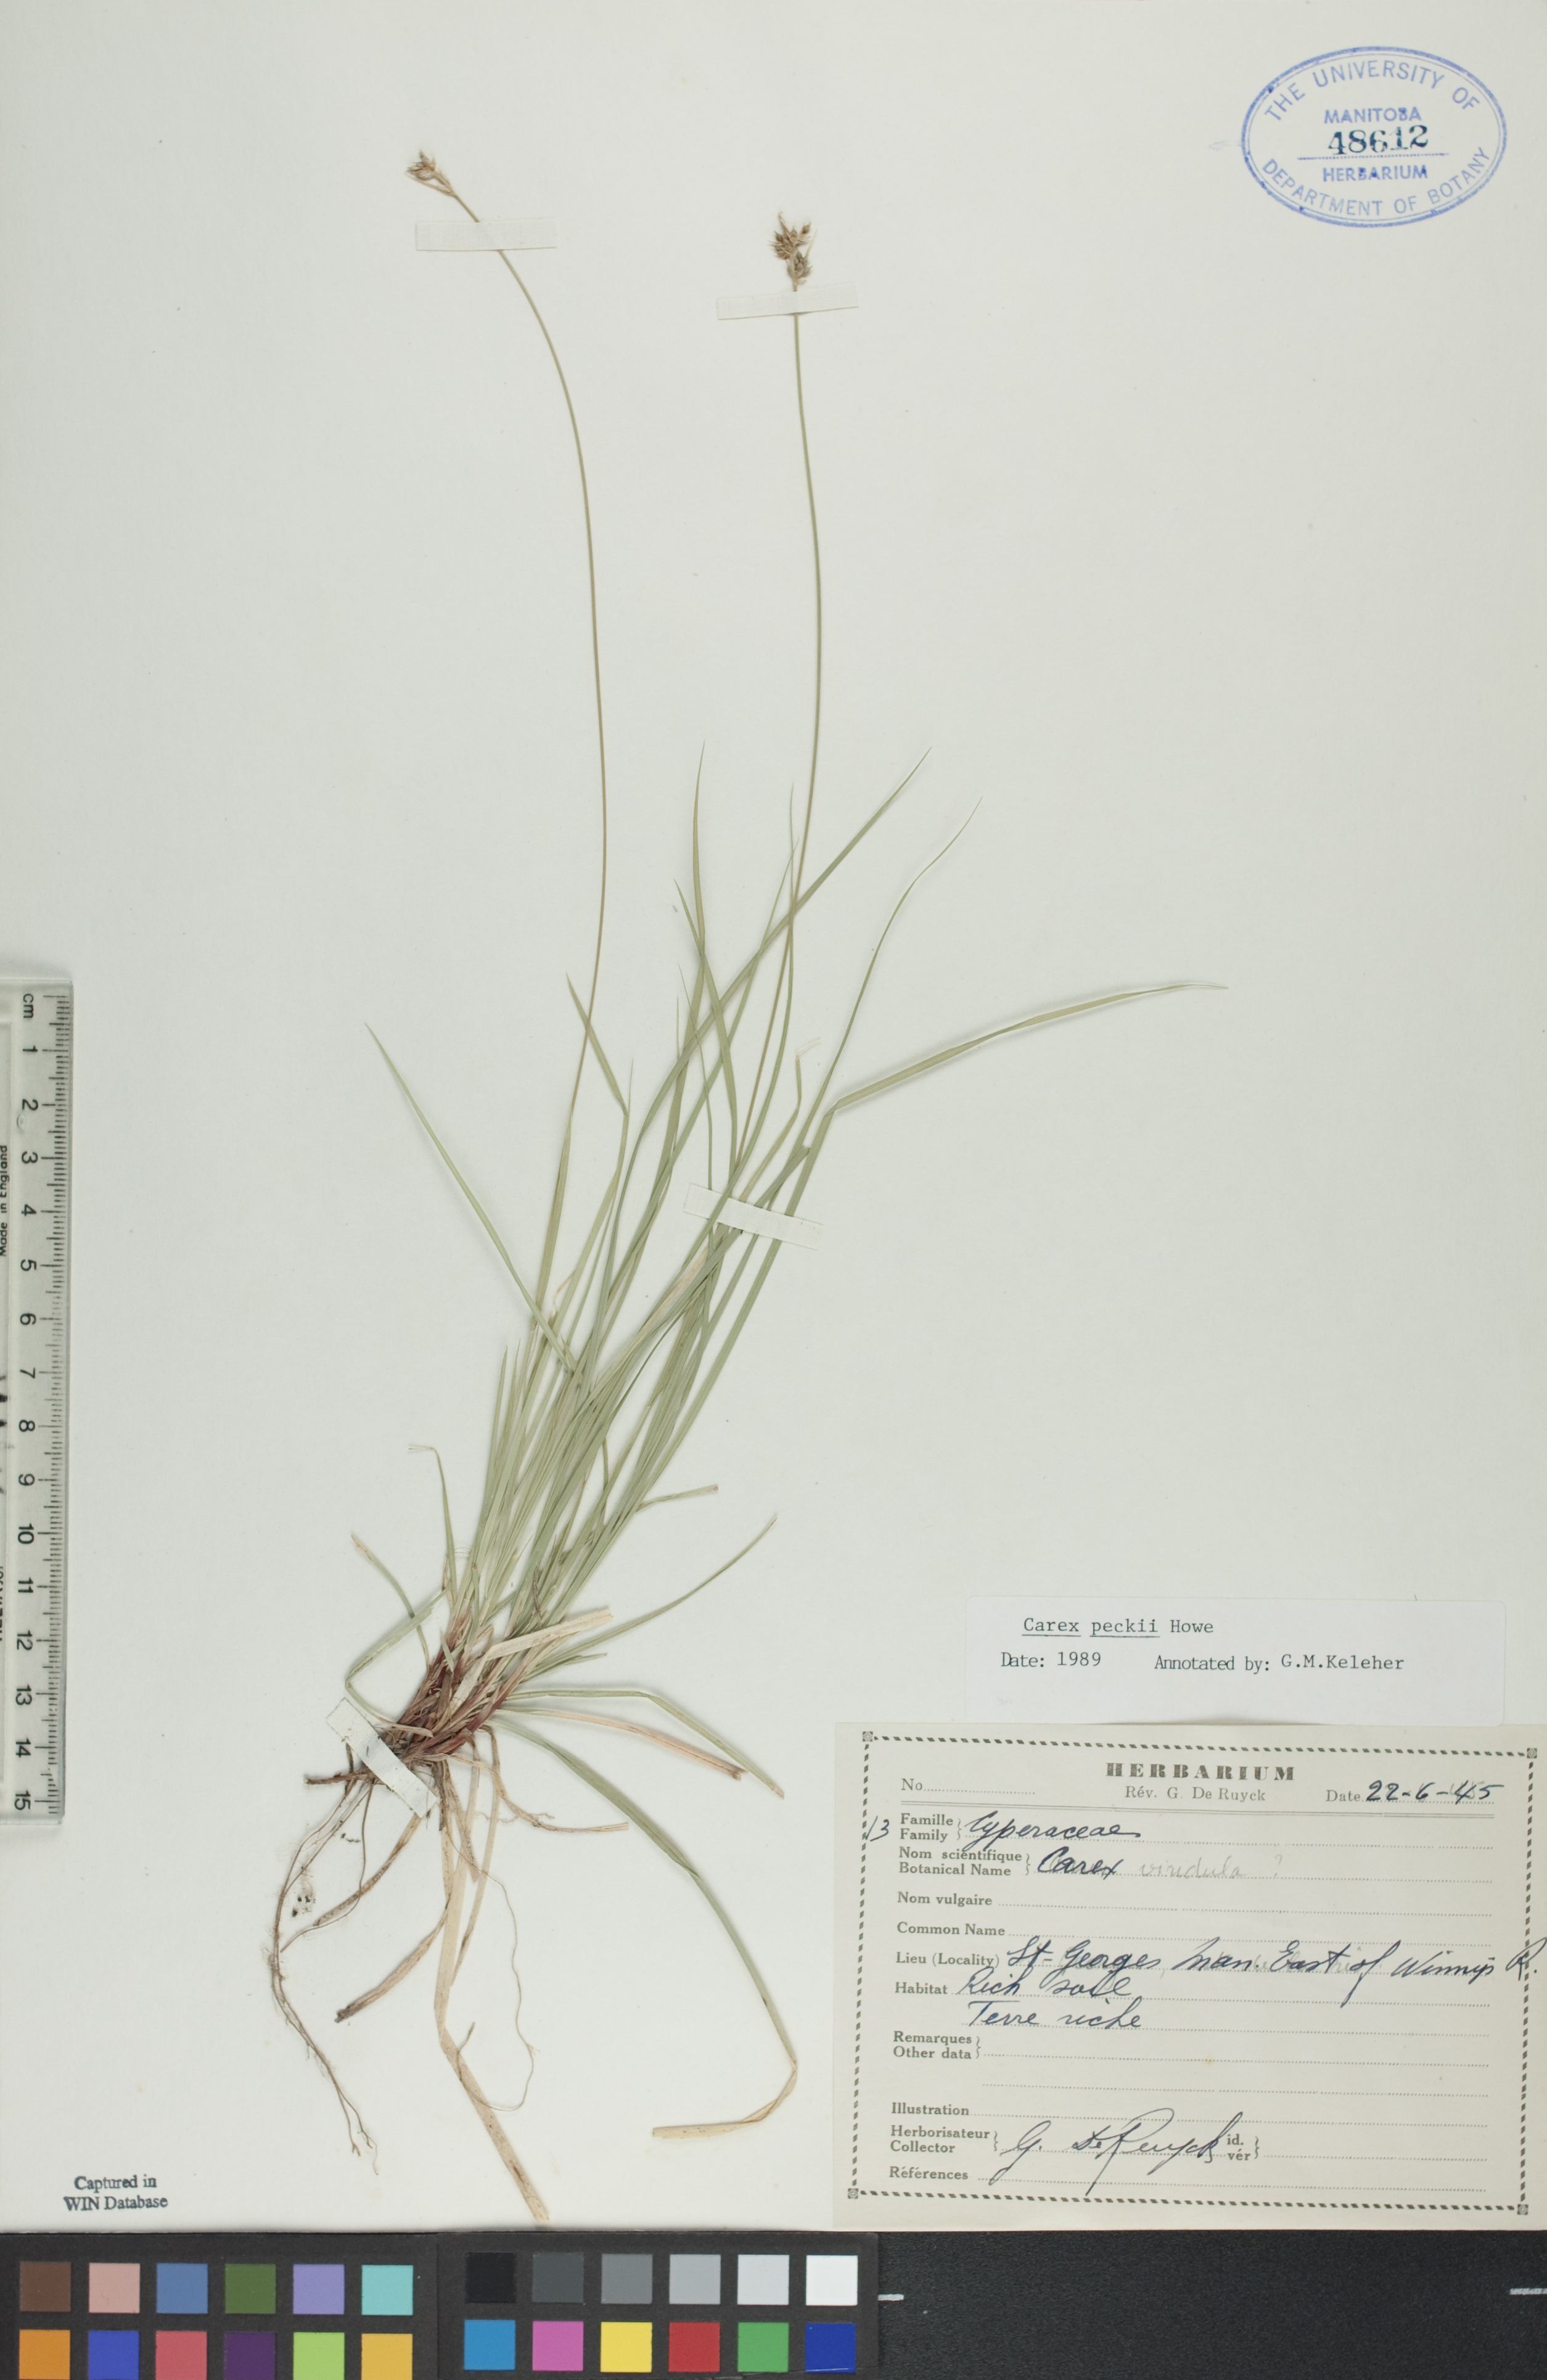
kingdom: Plantae
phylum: Tracheophyta
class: Liliopsida
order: Poales
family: Cyperaceae
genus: Carex
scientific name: Carex peckii
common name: Peck's oak sedge
